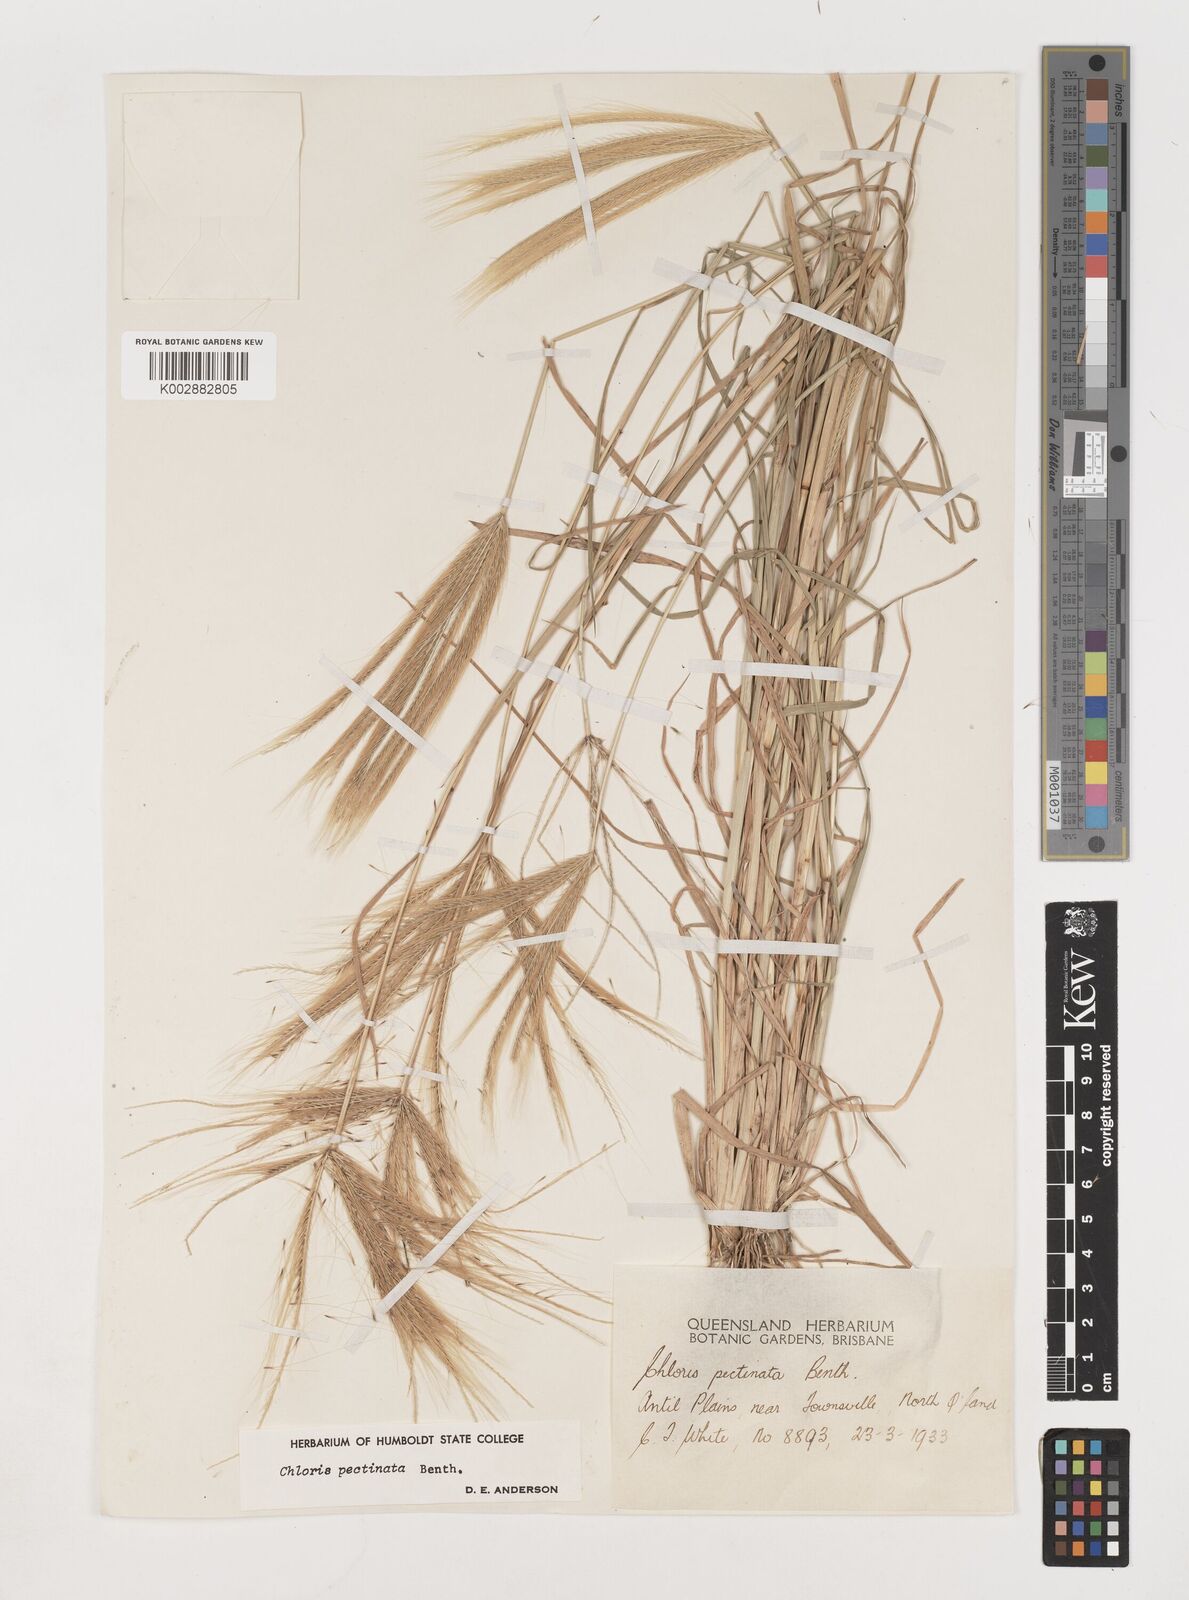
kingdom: Plantae
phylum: Tracheophyta
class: Liliopsida
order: Poales
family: Poaceae
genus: Chloris
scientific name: Chloris pectinata
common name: Comb windmill grass
